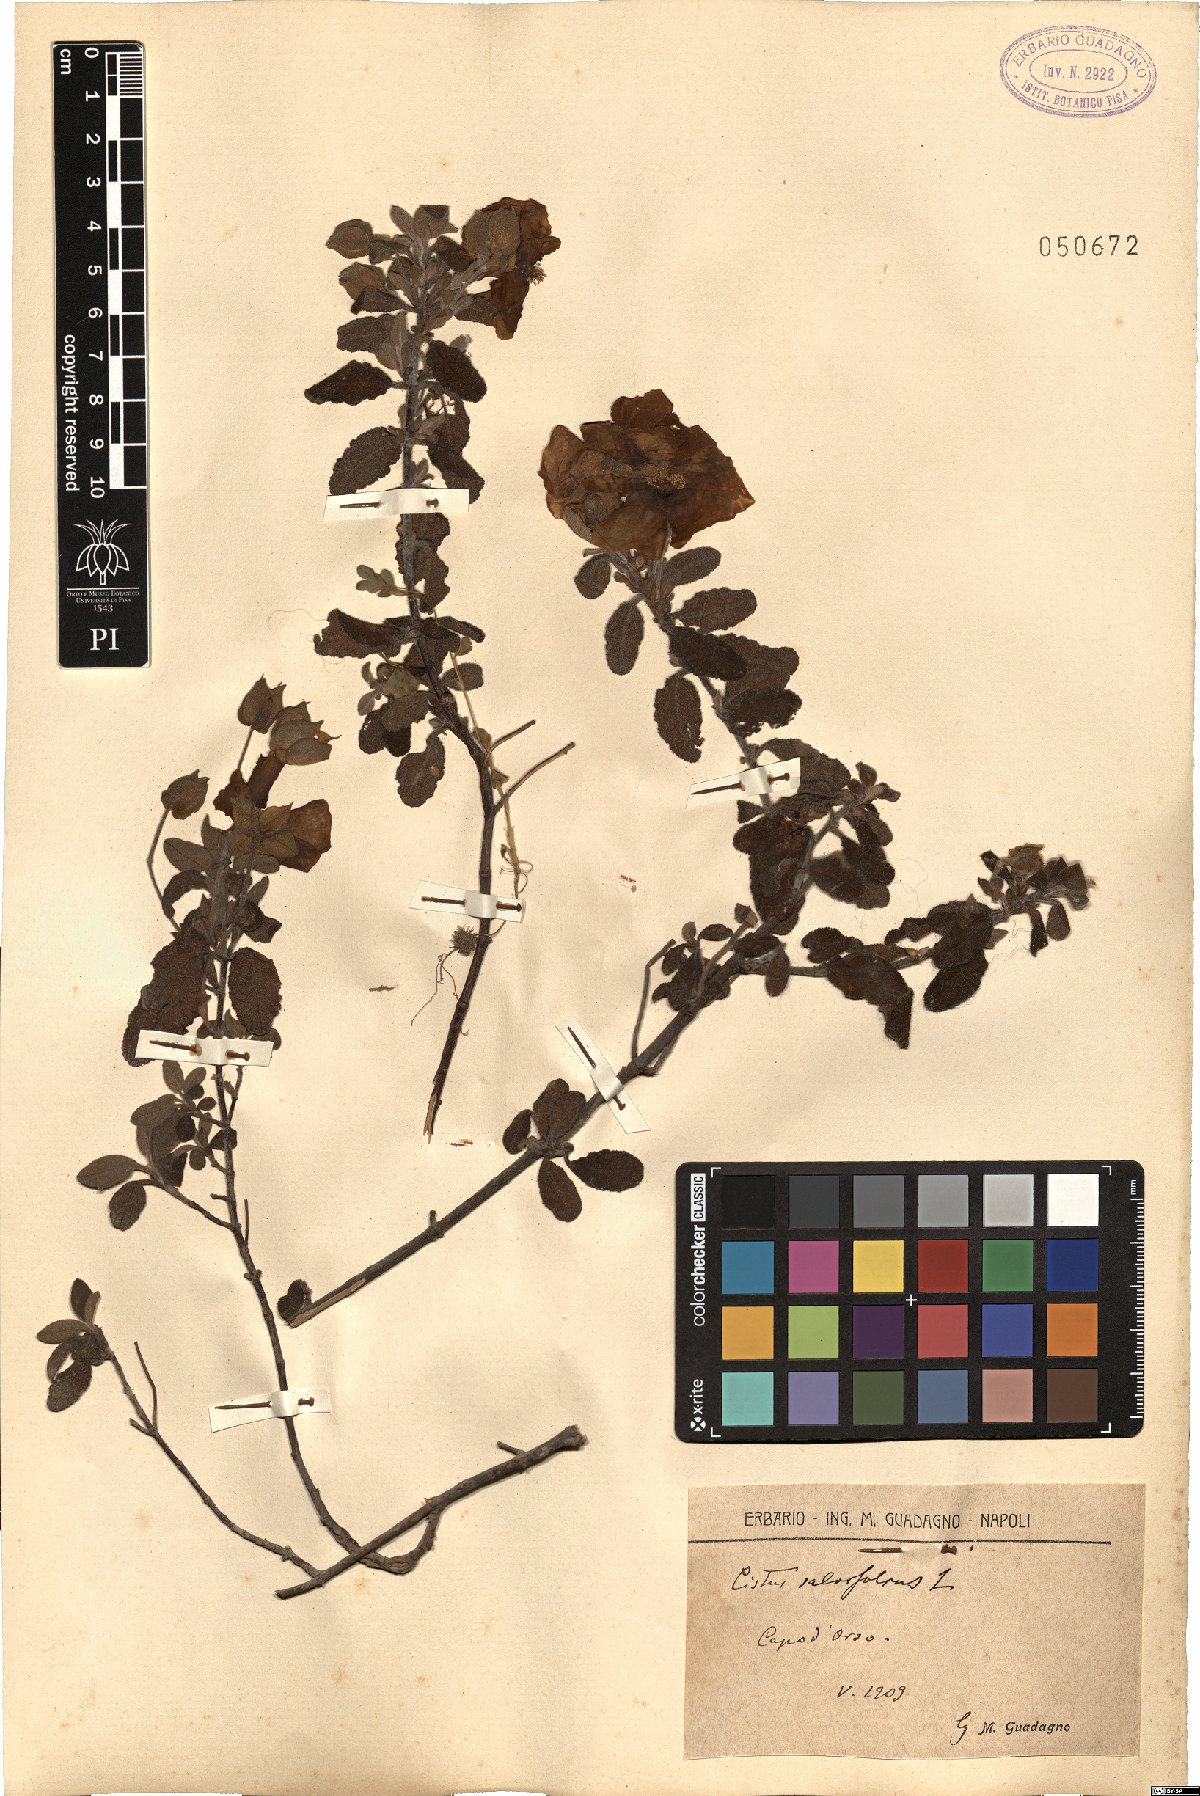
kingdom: Plantae
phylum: Tracheophyta
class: Magnoliopsida
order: Malvales
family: Cistaceae
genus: Cistus
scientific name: Cistus salviifolius
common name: Salvia cistus
